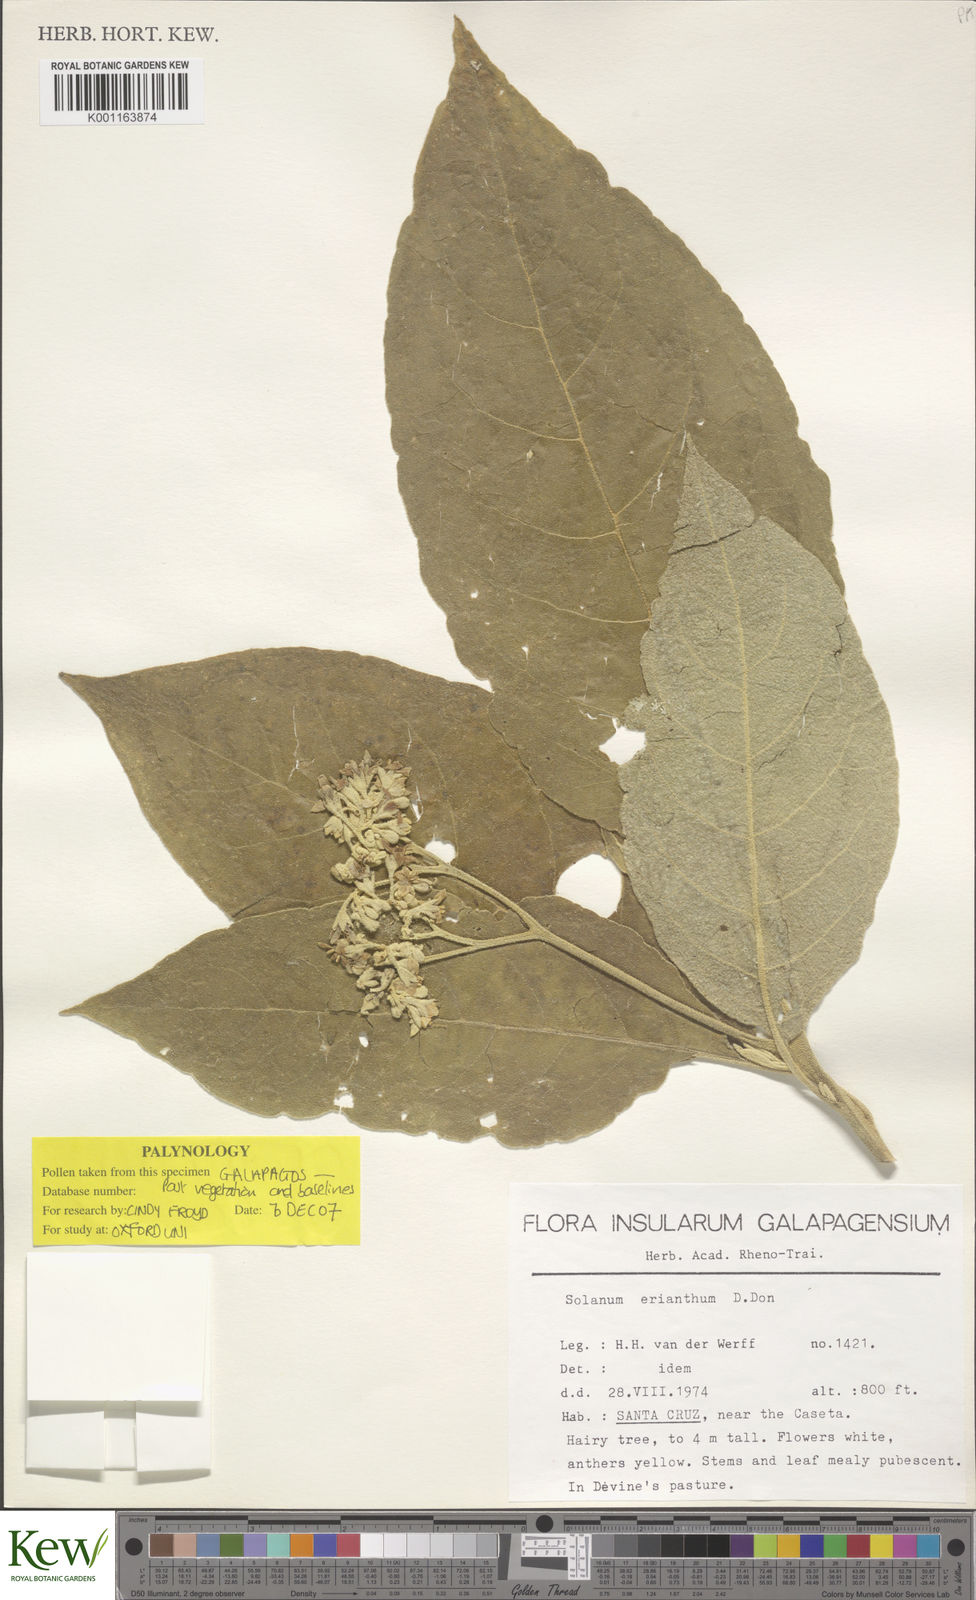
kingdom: Plantae
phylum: Tracheophyta
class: Magnoliopsida
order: Solanales
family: Solanaceae
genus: Solanum
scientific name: Solanum erianthum
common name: Tobacco-tree
